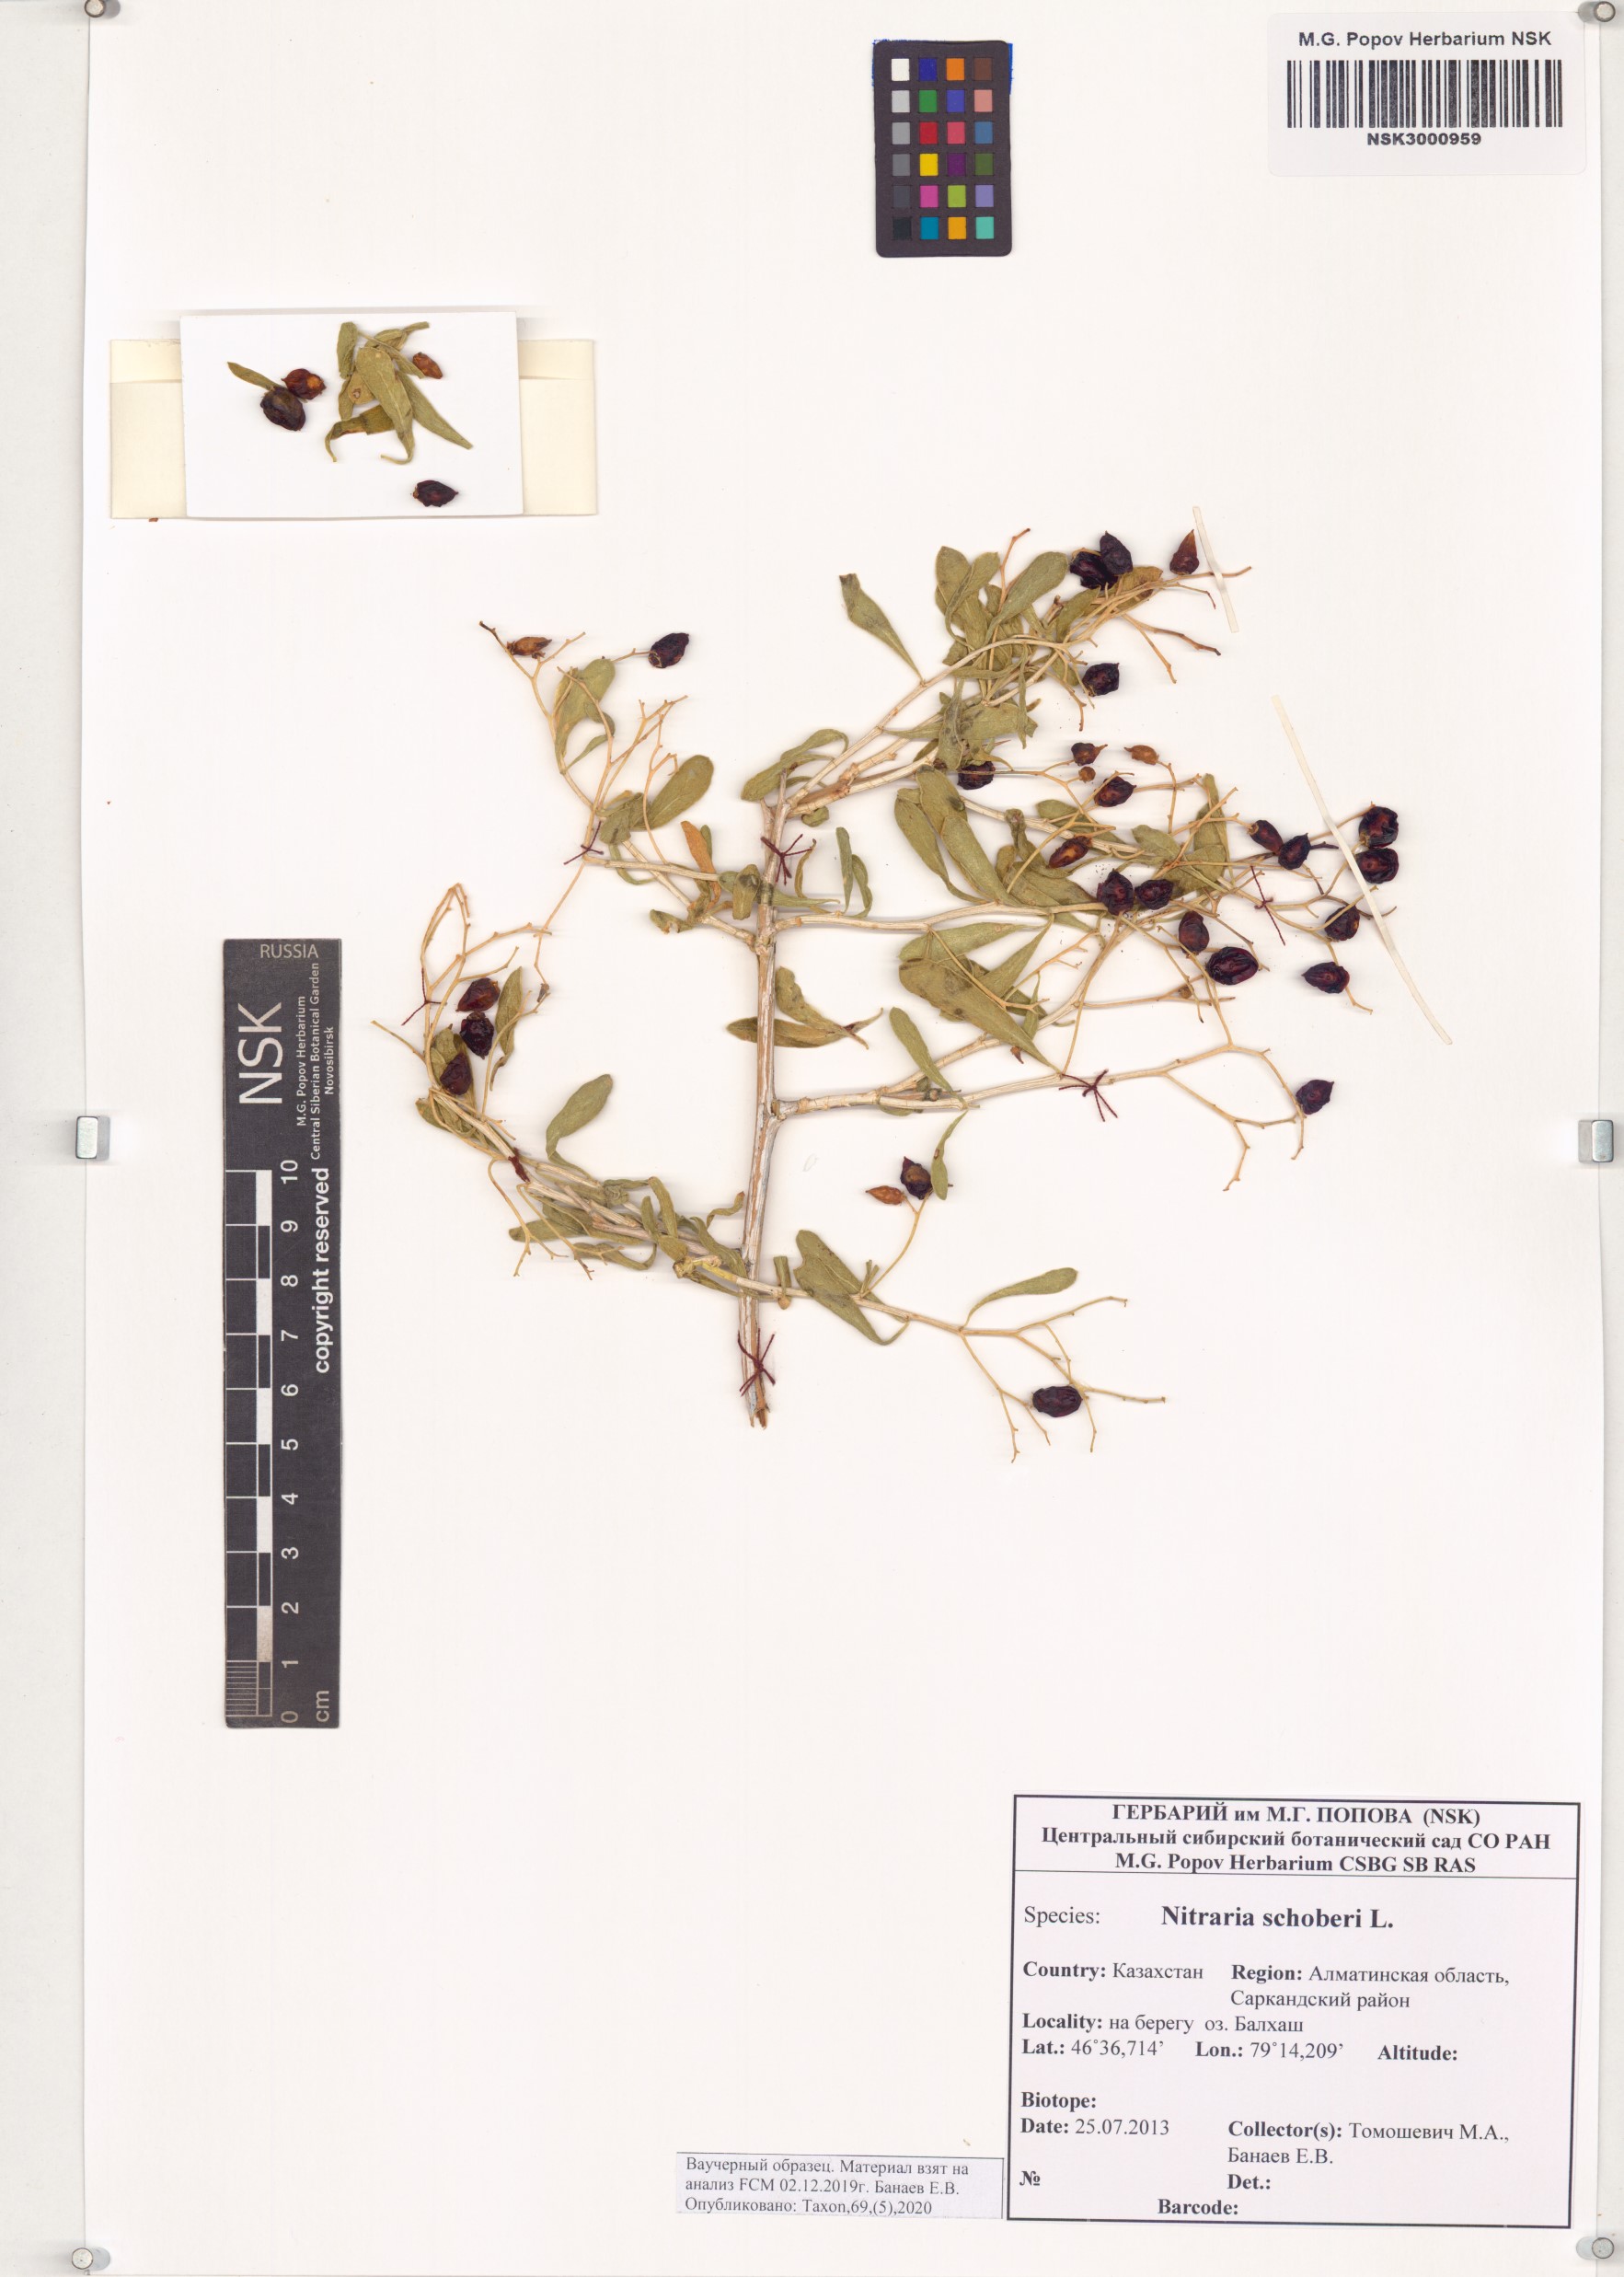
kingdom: Plantae
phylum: Tracheophyta
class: Magnoliopsida
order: Sapindales
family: Nitrariaceae
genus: Nitraria
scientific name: Nitraria schoberi
